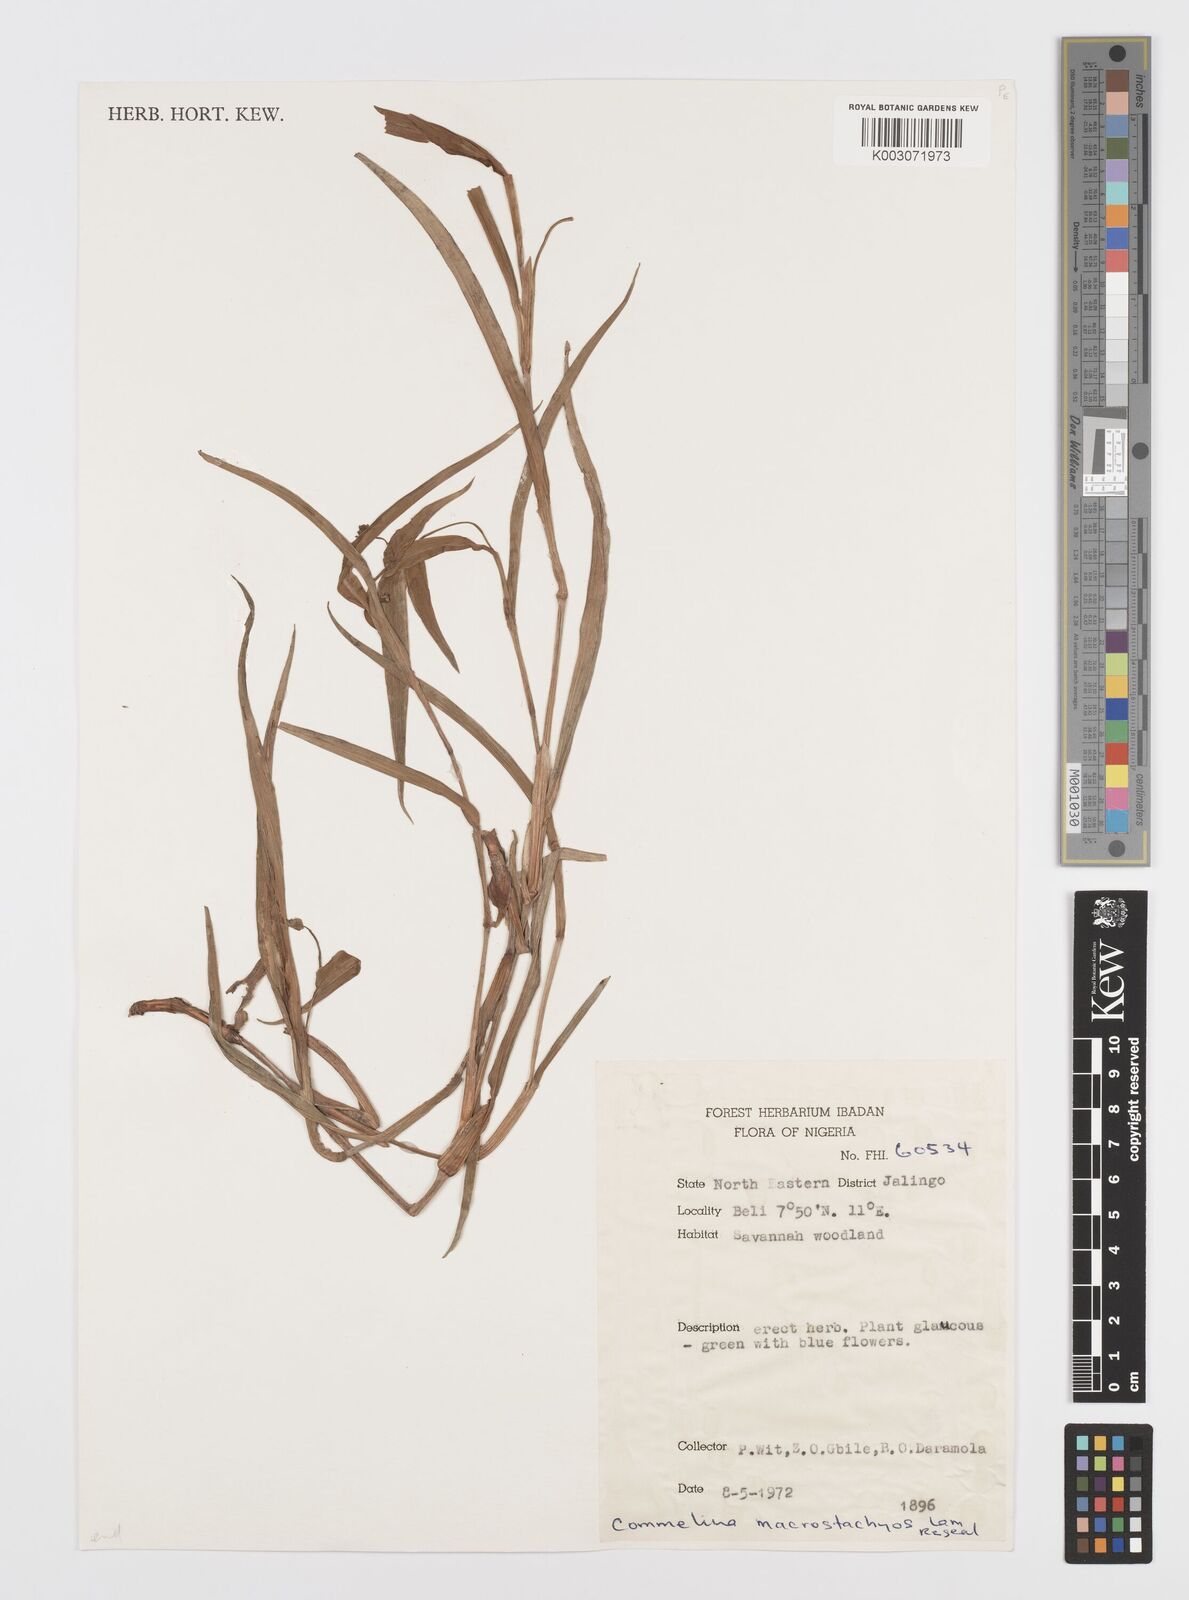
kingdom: Plantae
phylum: Tracheophyta
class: Liliopsida
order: Commelinales
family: Commelinaceae
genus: Commelina
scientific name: Commelina
